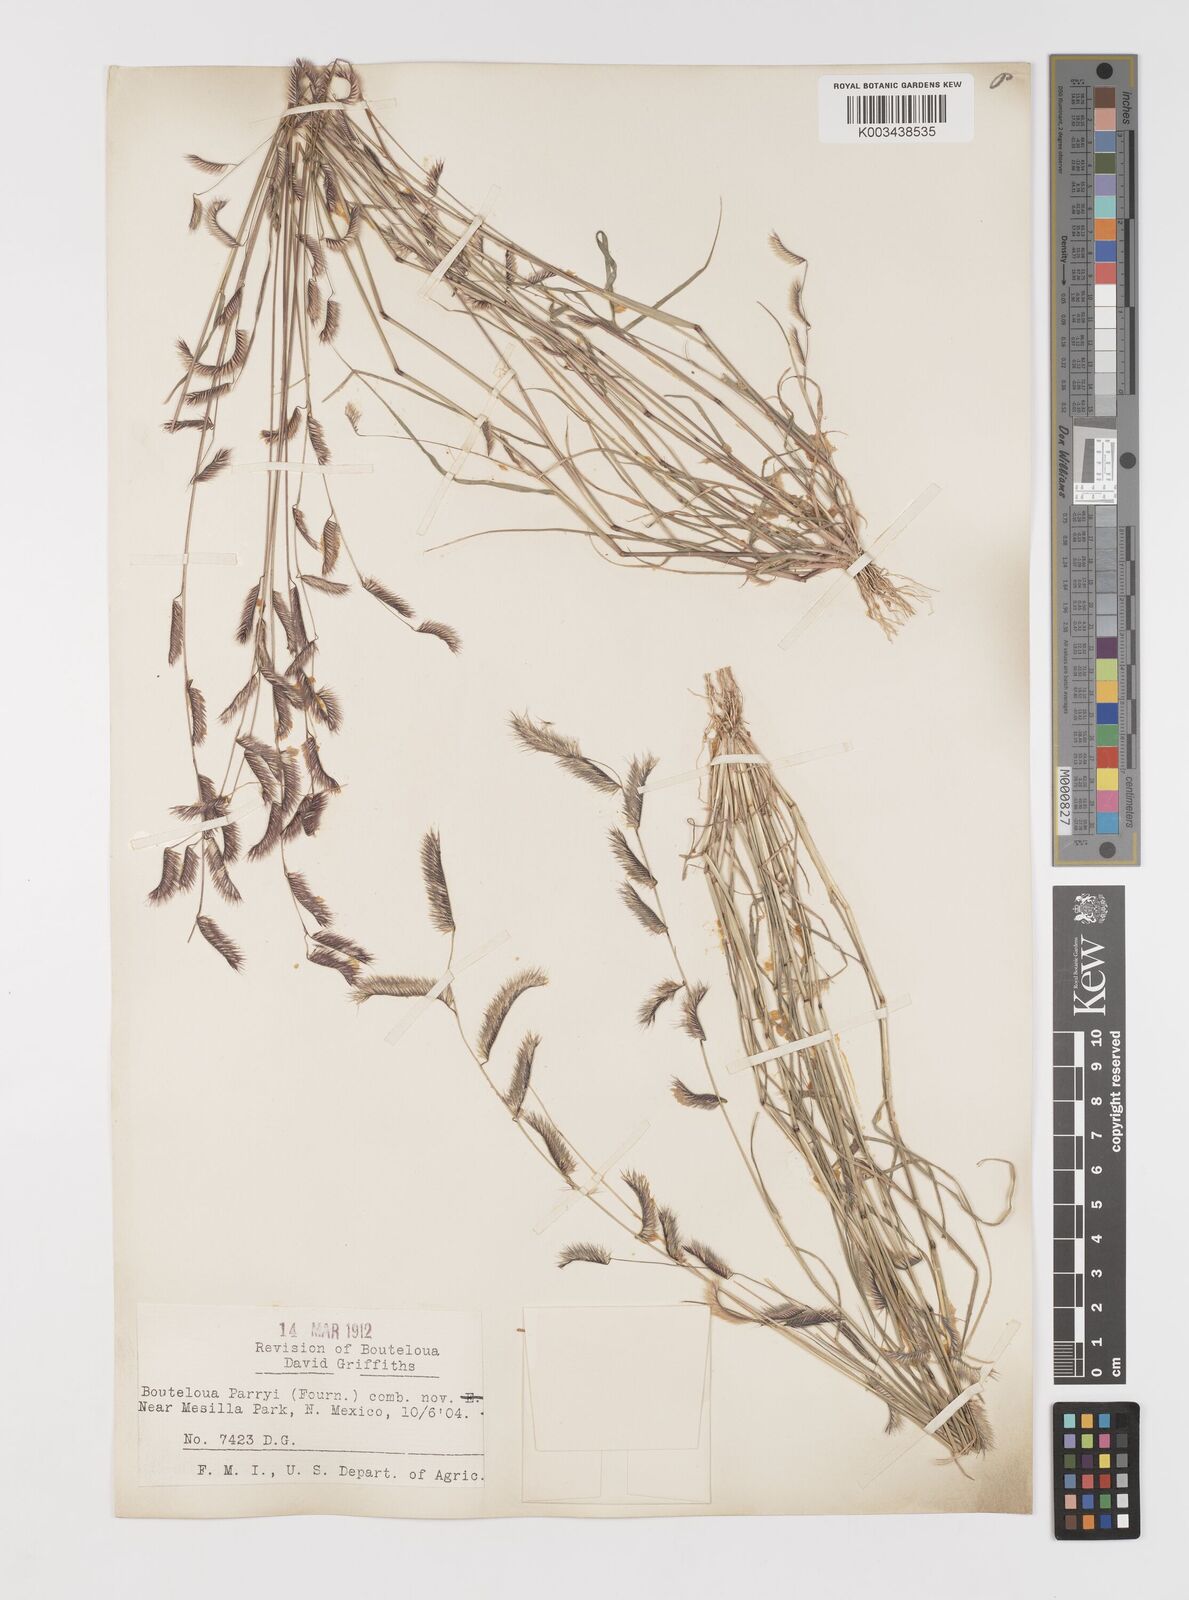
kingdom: Plantae
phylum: Tracheophyta
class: Liliopsida
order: Poales
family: Poaceae
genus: Bouteloua
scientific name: Bouteloua parryi
